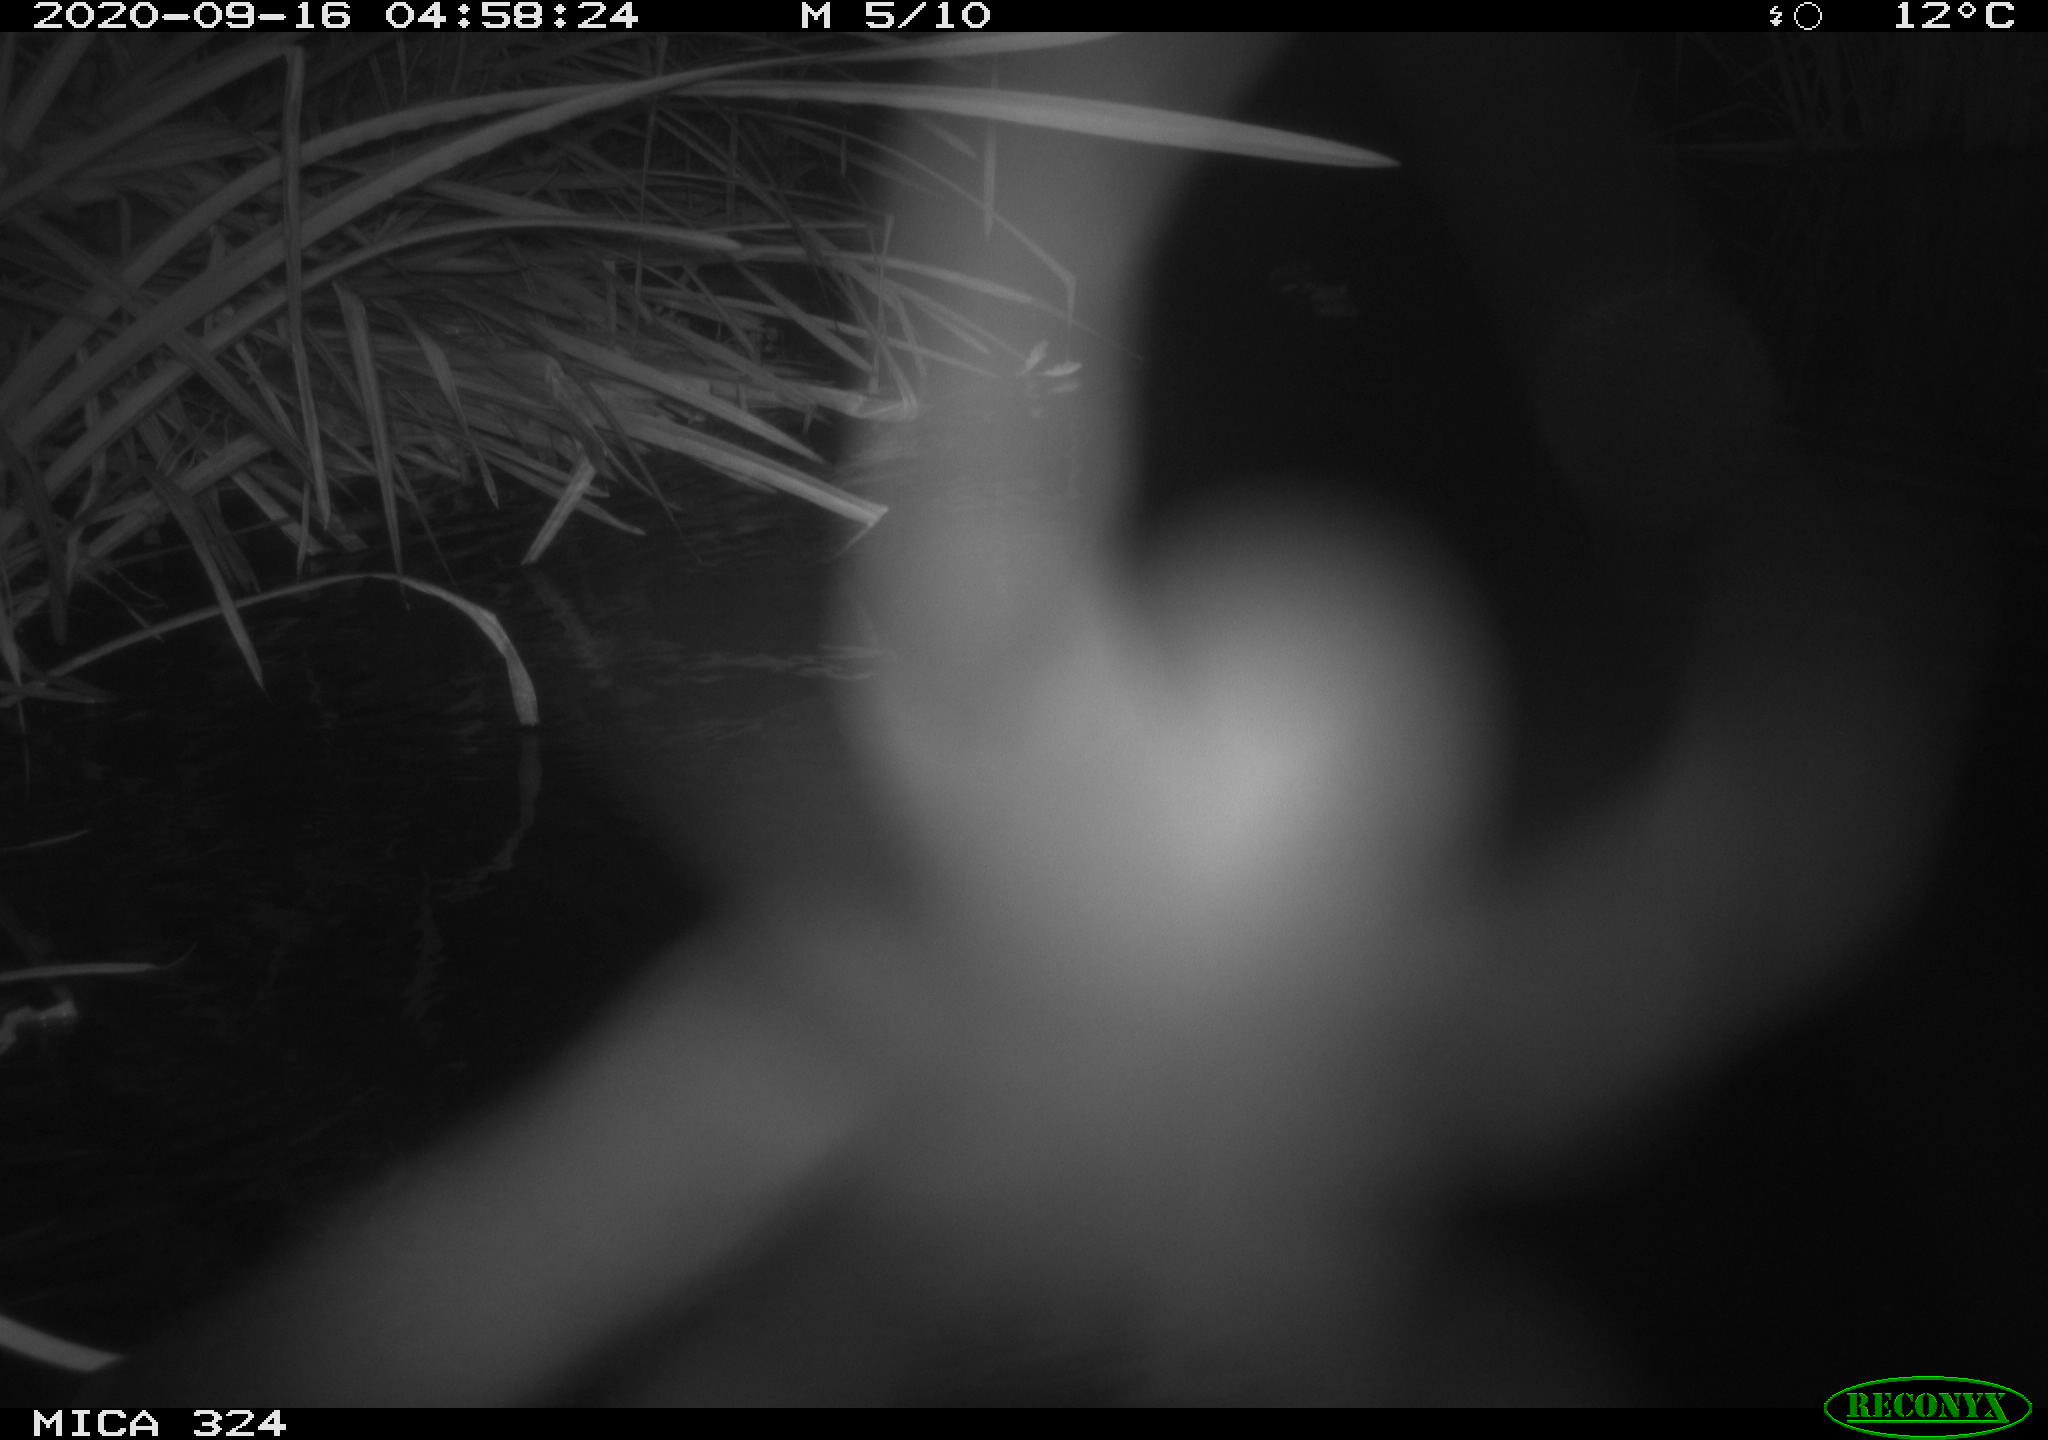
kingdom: Animalia
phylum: Chordata
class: Mammalia
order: Rodentia
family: Cricetidae
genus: Ondatra
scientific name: Ondatra zibethicus
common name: Muskrat
